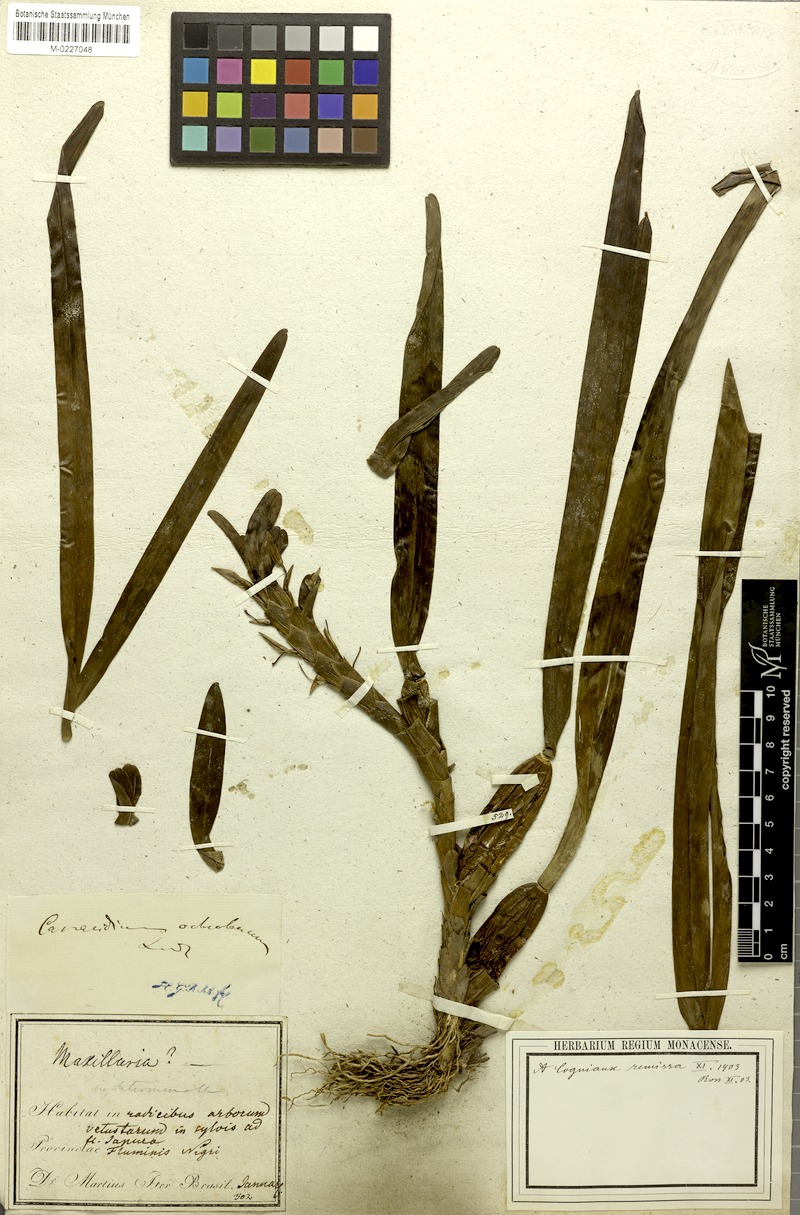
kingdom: Plantae
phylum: Tracheophyta
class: Liliopsida
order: Asparagales
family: Orchidaceae
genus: Maxillaria
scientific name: Maxillaria lutescens
